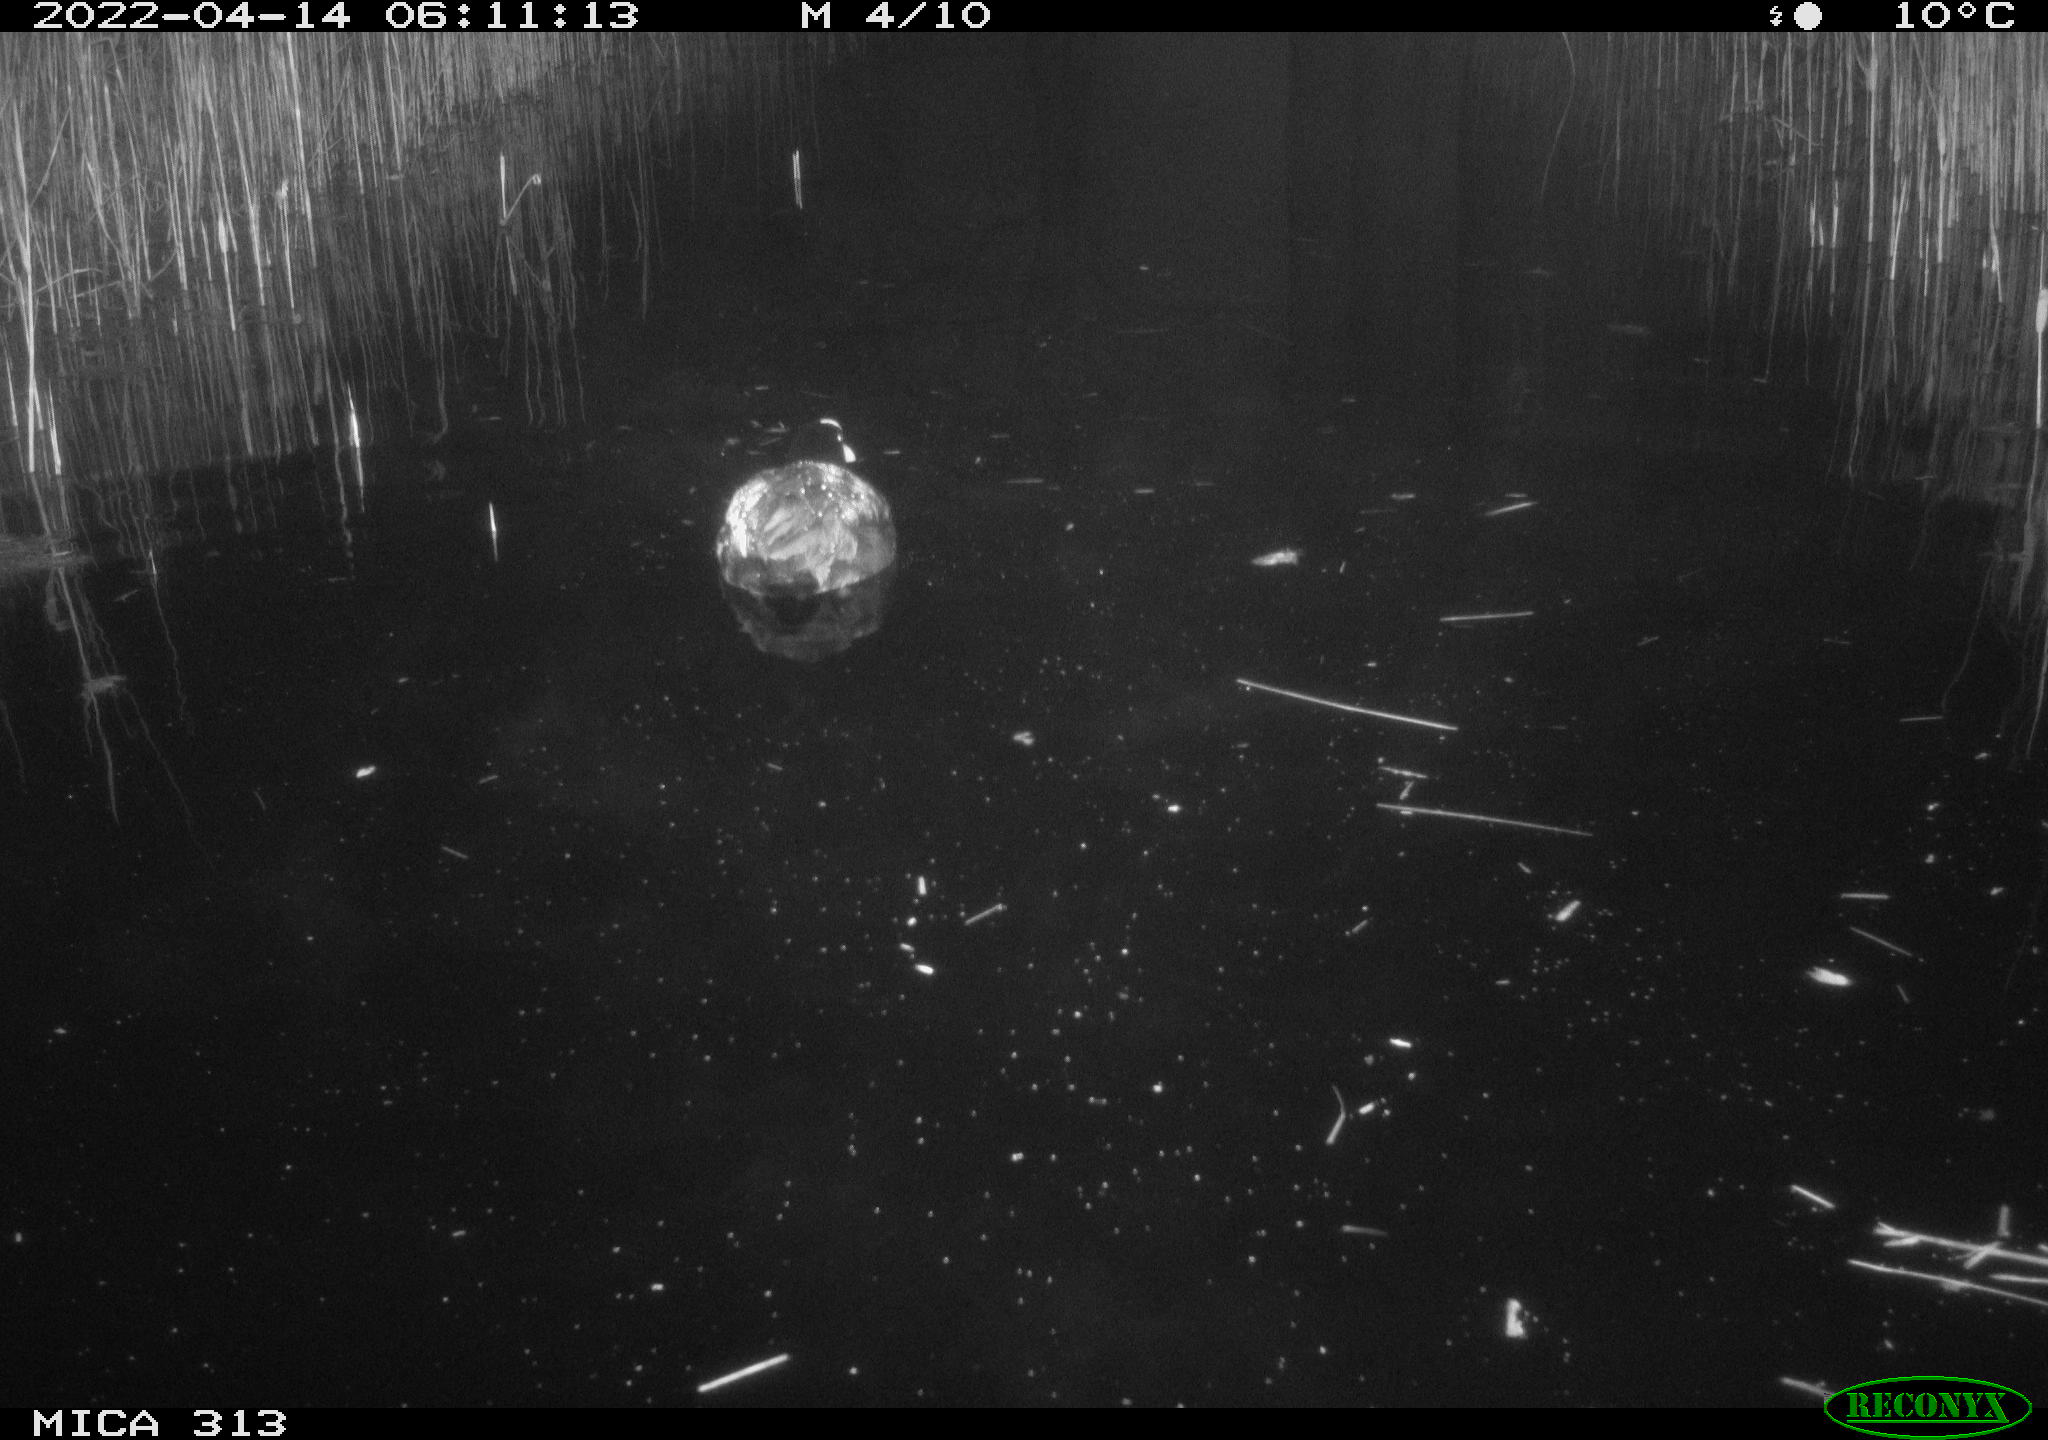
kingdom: Animalia
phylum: Chordata
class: Aves
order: Gruiformes
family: Rallidae
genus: Gallinula
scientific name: Gallinula chloropus
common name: Common moorhen
